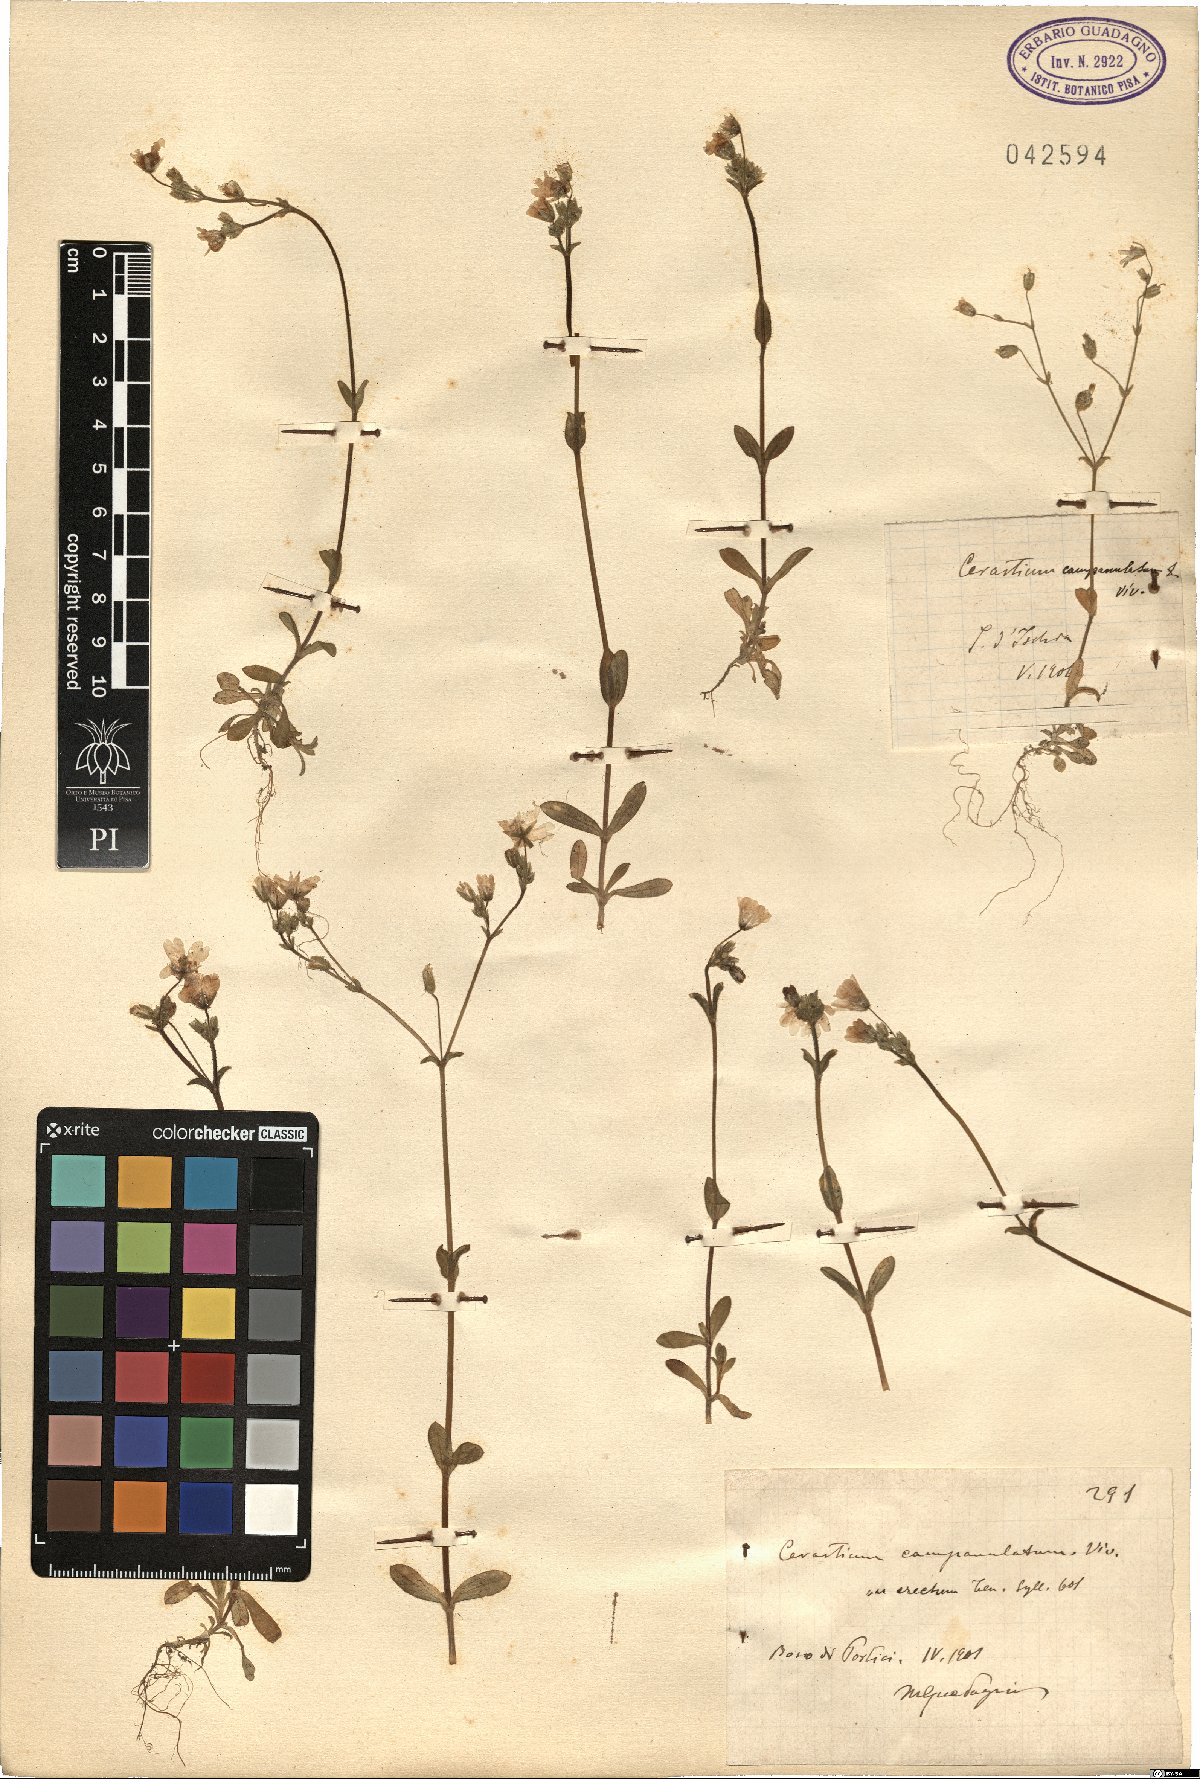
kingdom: Plantae
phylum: Tracheophyta
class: Magnoliopsida
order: Caryophyllales
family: Caryophyllaceae
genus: Cerastium
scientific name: Cerastium ligusticum
